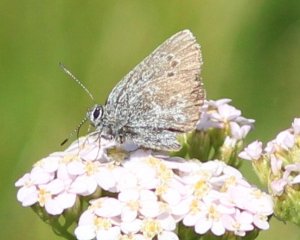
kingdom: Animalia
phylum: Arthropoda
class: Insecta
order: Lepidoptera
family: Lycaenidae
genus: Satyrium
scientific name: Satyrium fuliginosa
